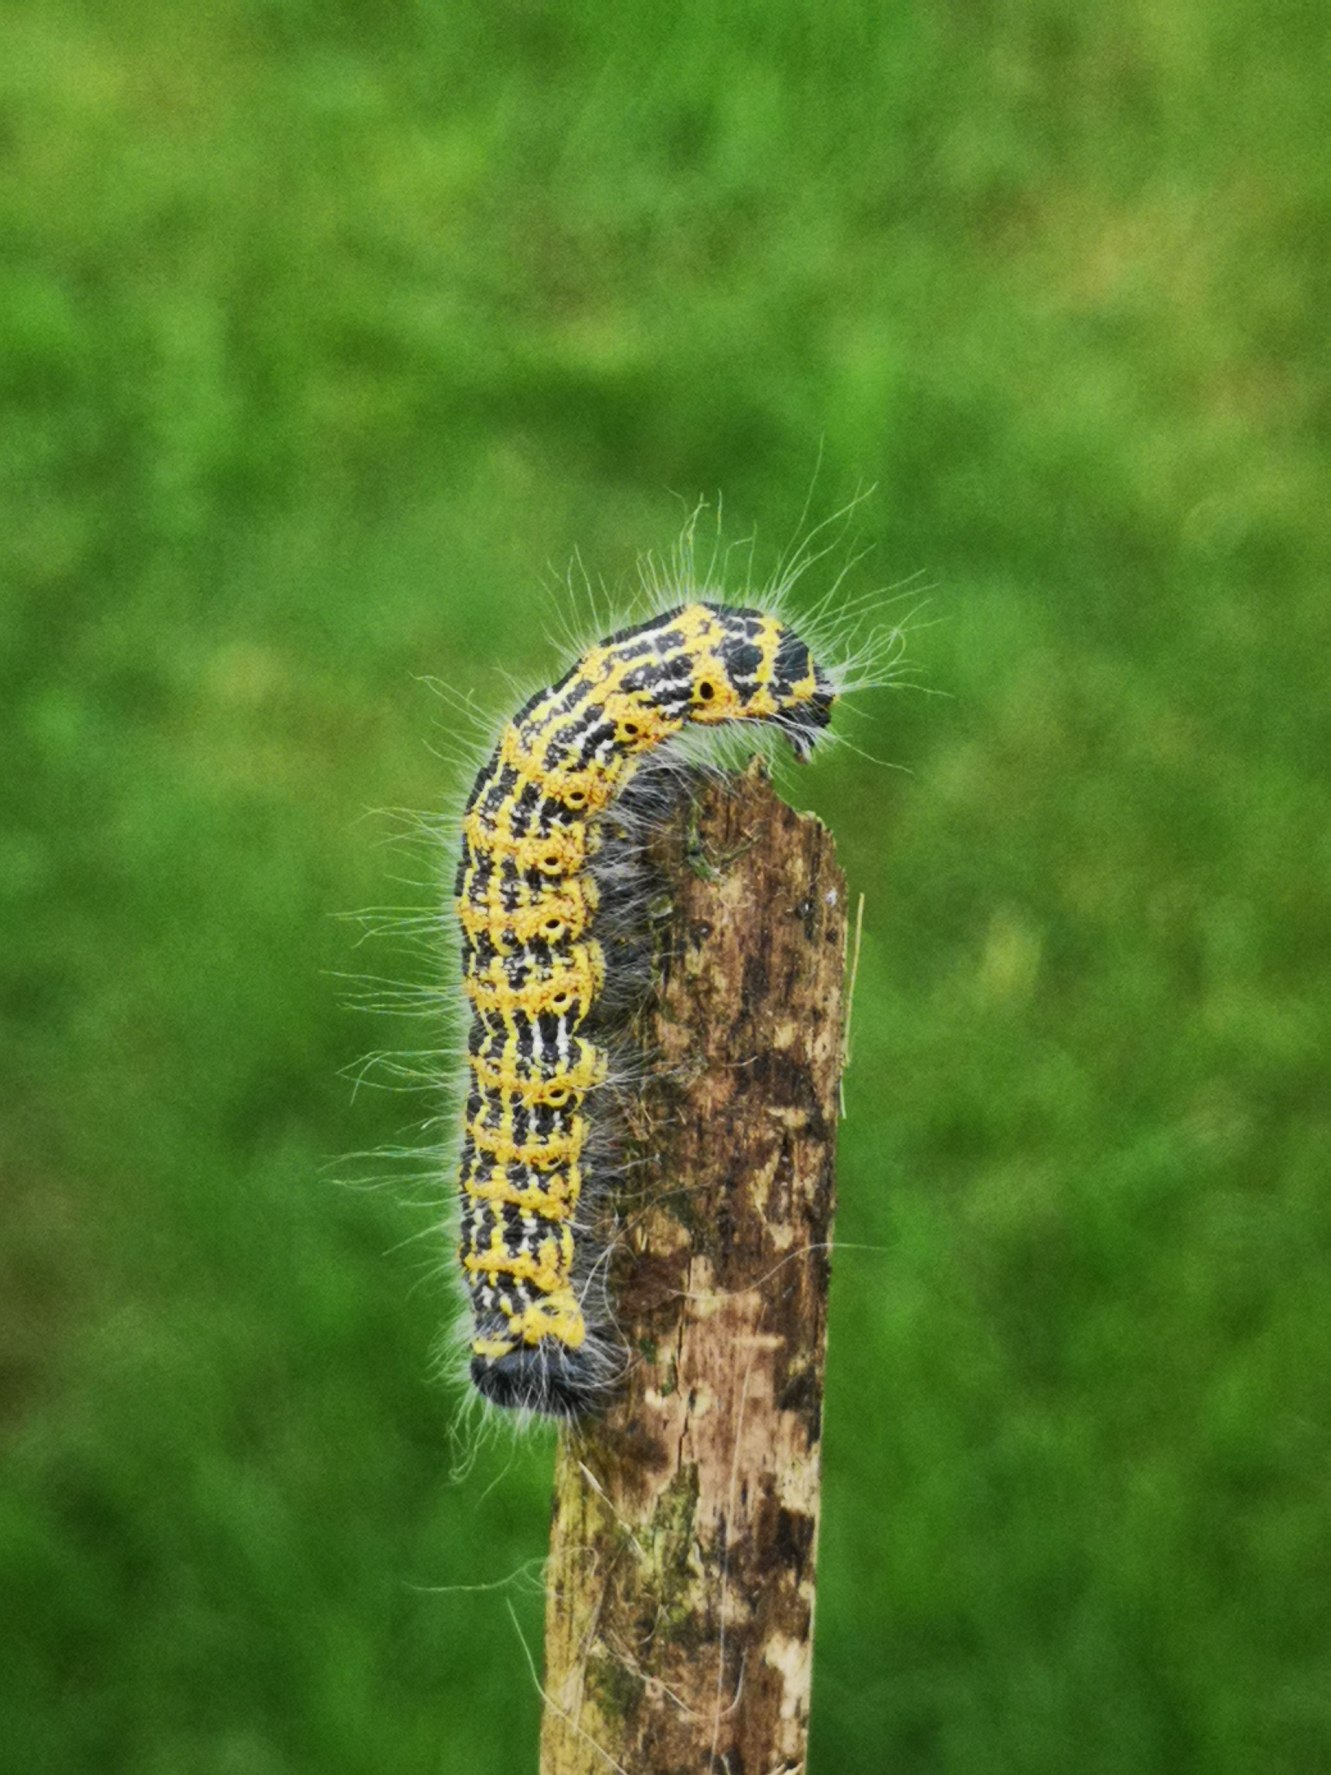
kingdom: Animalia
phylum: Arthropoda
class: Insecta
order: Lepidoptera
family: Notodontidae
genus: Phalera
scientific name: Phalera bucephala
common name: Måneplet
